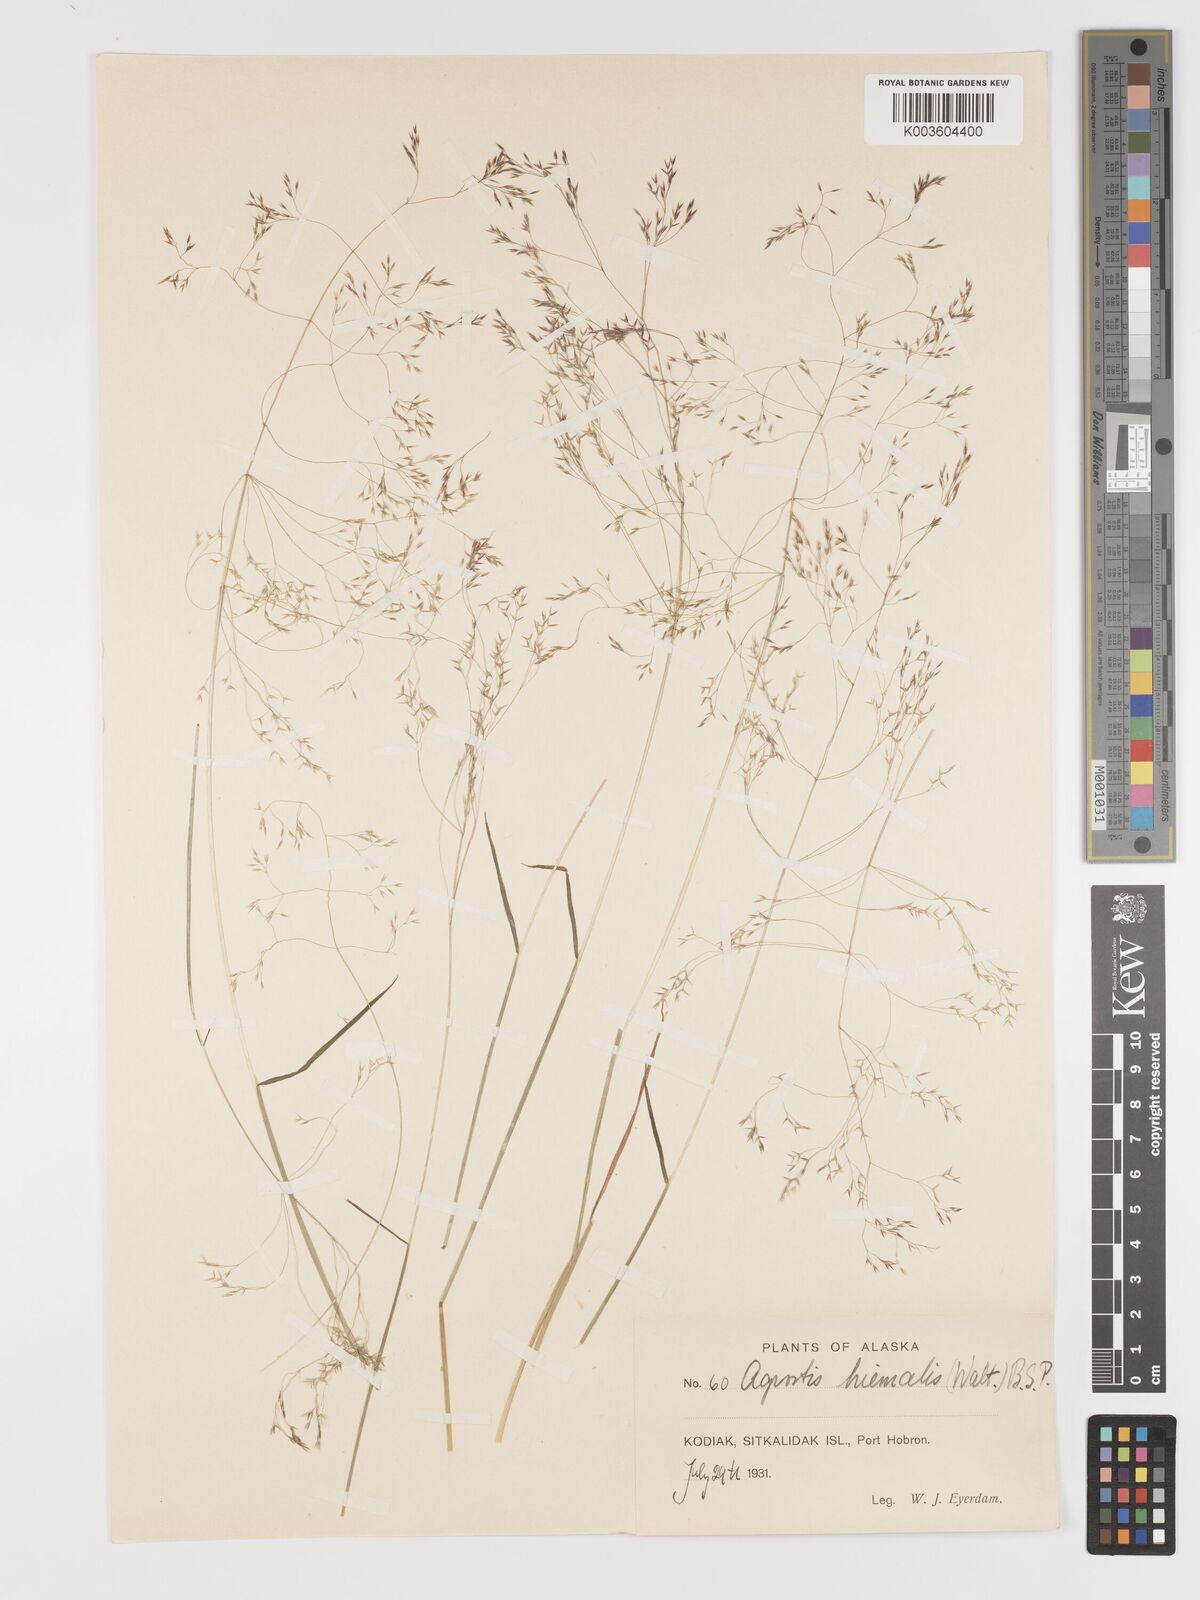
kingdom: Plantae
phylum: Tracheophyta
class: Liliopsida
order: Poales
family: Poaceae
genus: Agrostis
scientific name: Agrostis hyemalis
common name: Small bent
